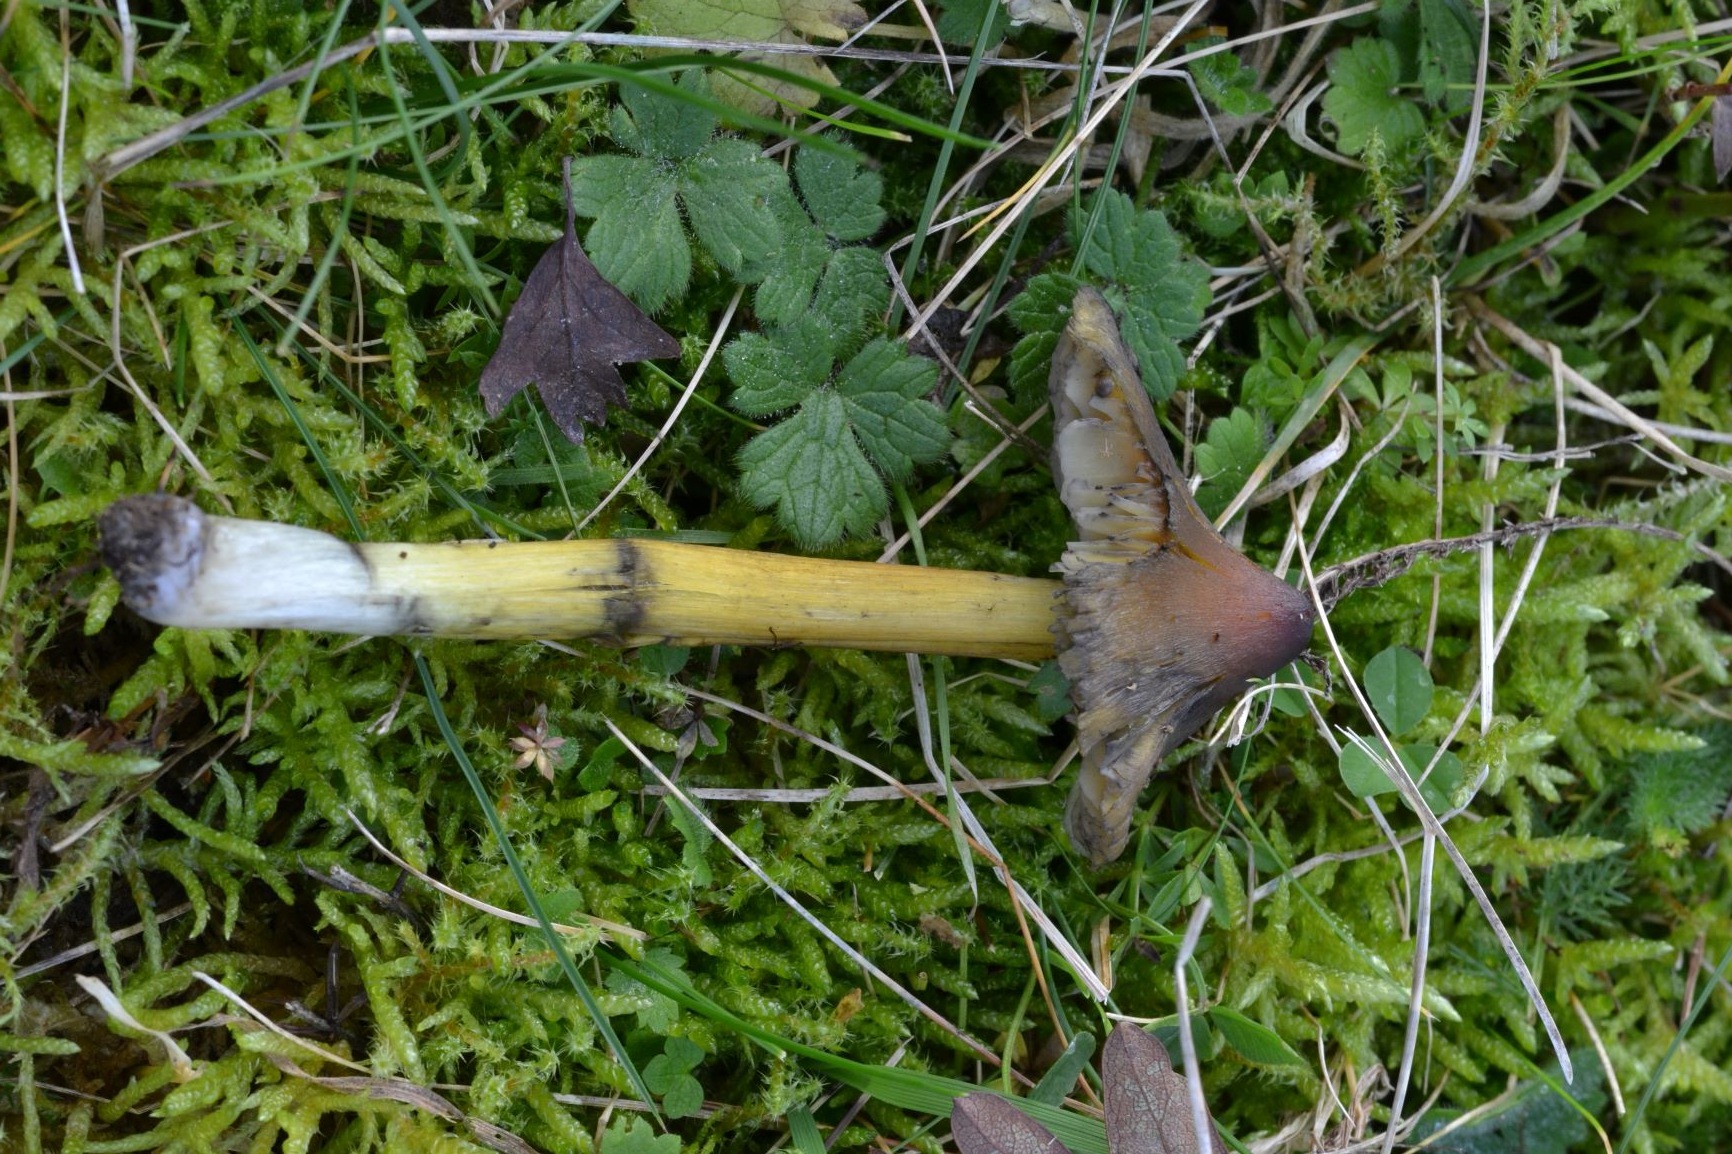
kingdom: Fungi
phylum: Basidiomycota
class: Agaricomycetes
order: Agaricales
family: Hygrophoraceae
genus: Hygrocybe
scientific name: Hygrocybe conica
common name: kegle-vokshat
